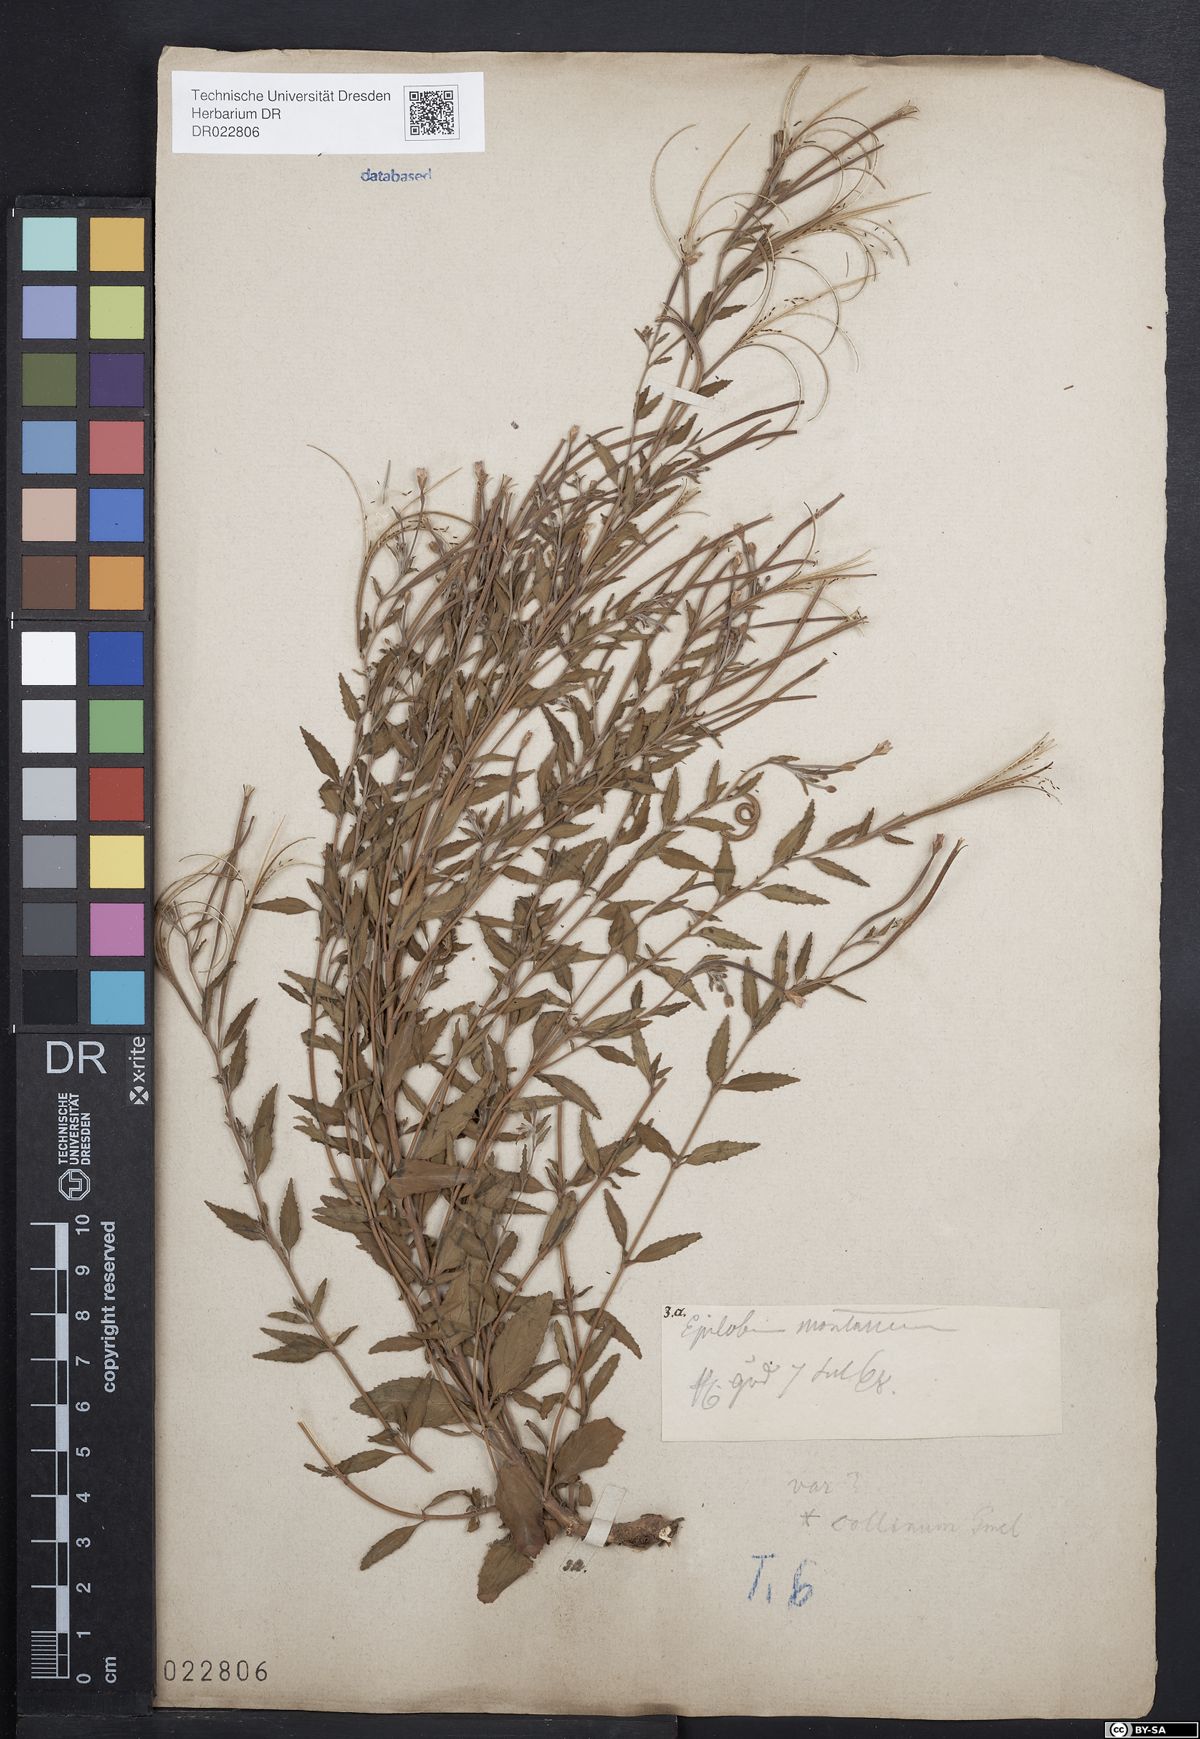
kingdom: Plantae
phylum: Tracheophyta
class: Magnoliopsida
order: Myrtales
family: Onagraceae
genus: Epilobium
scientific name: Epilobium collinum
